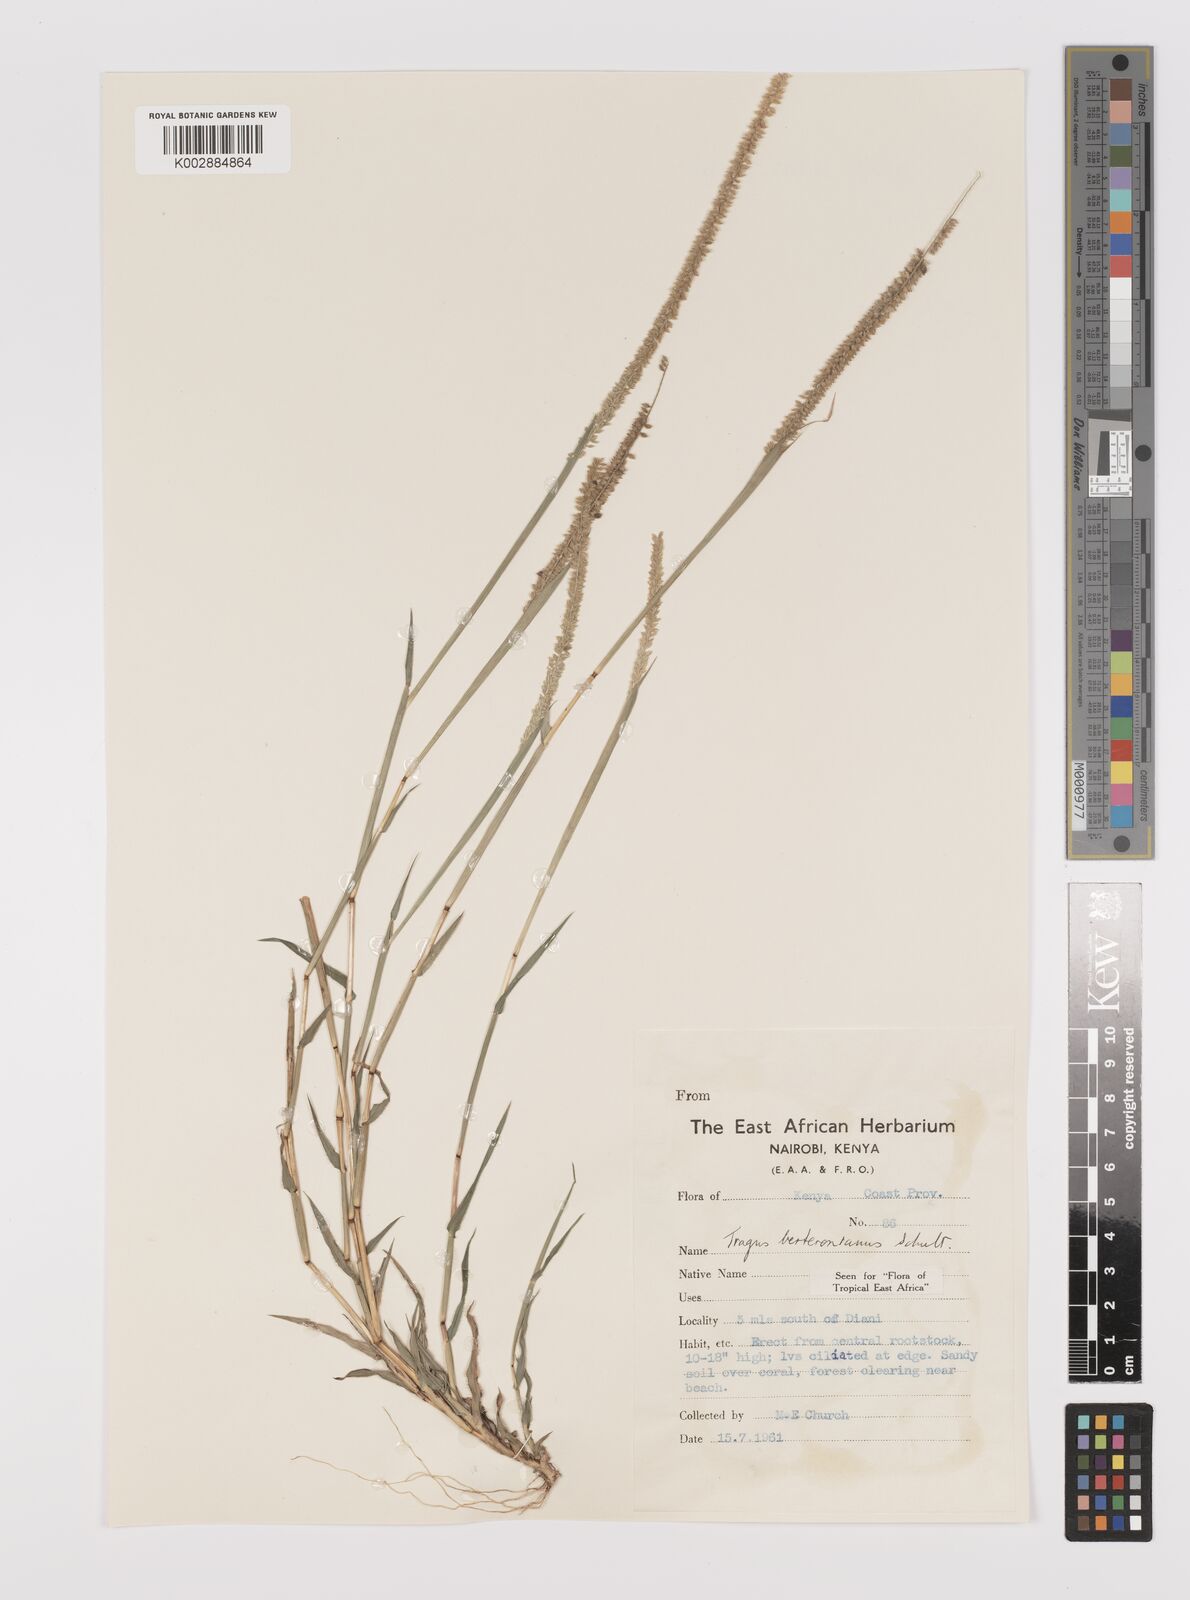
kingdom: Plantae
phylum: Tracheophyta
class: Liliopsida
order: Poales
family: Poaceae
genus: Tragus
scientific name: Tragus berteronianus
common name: African bur-grass
